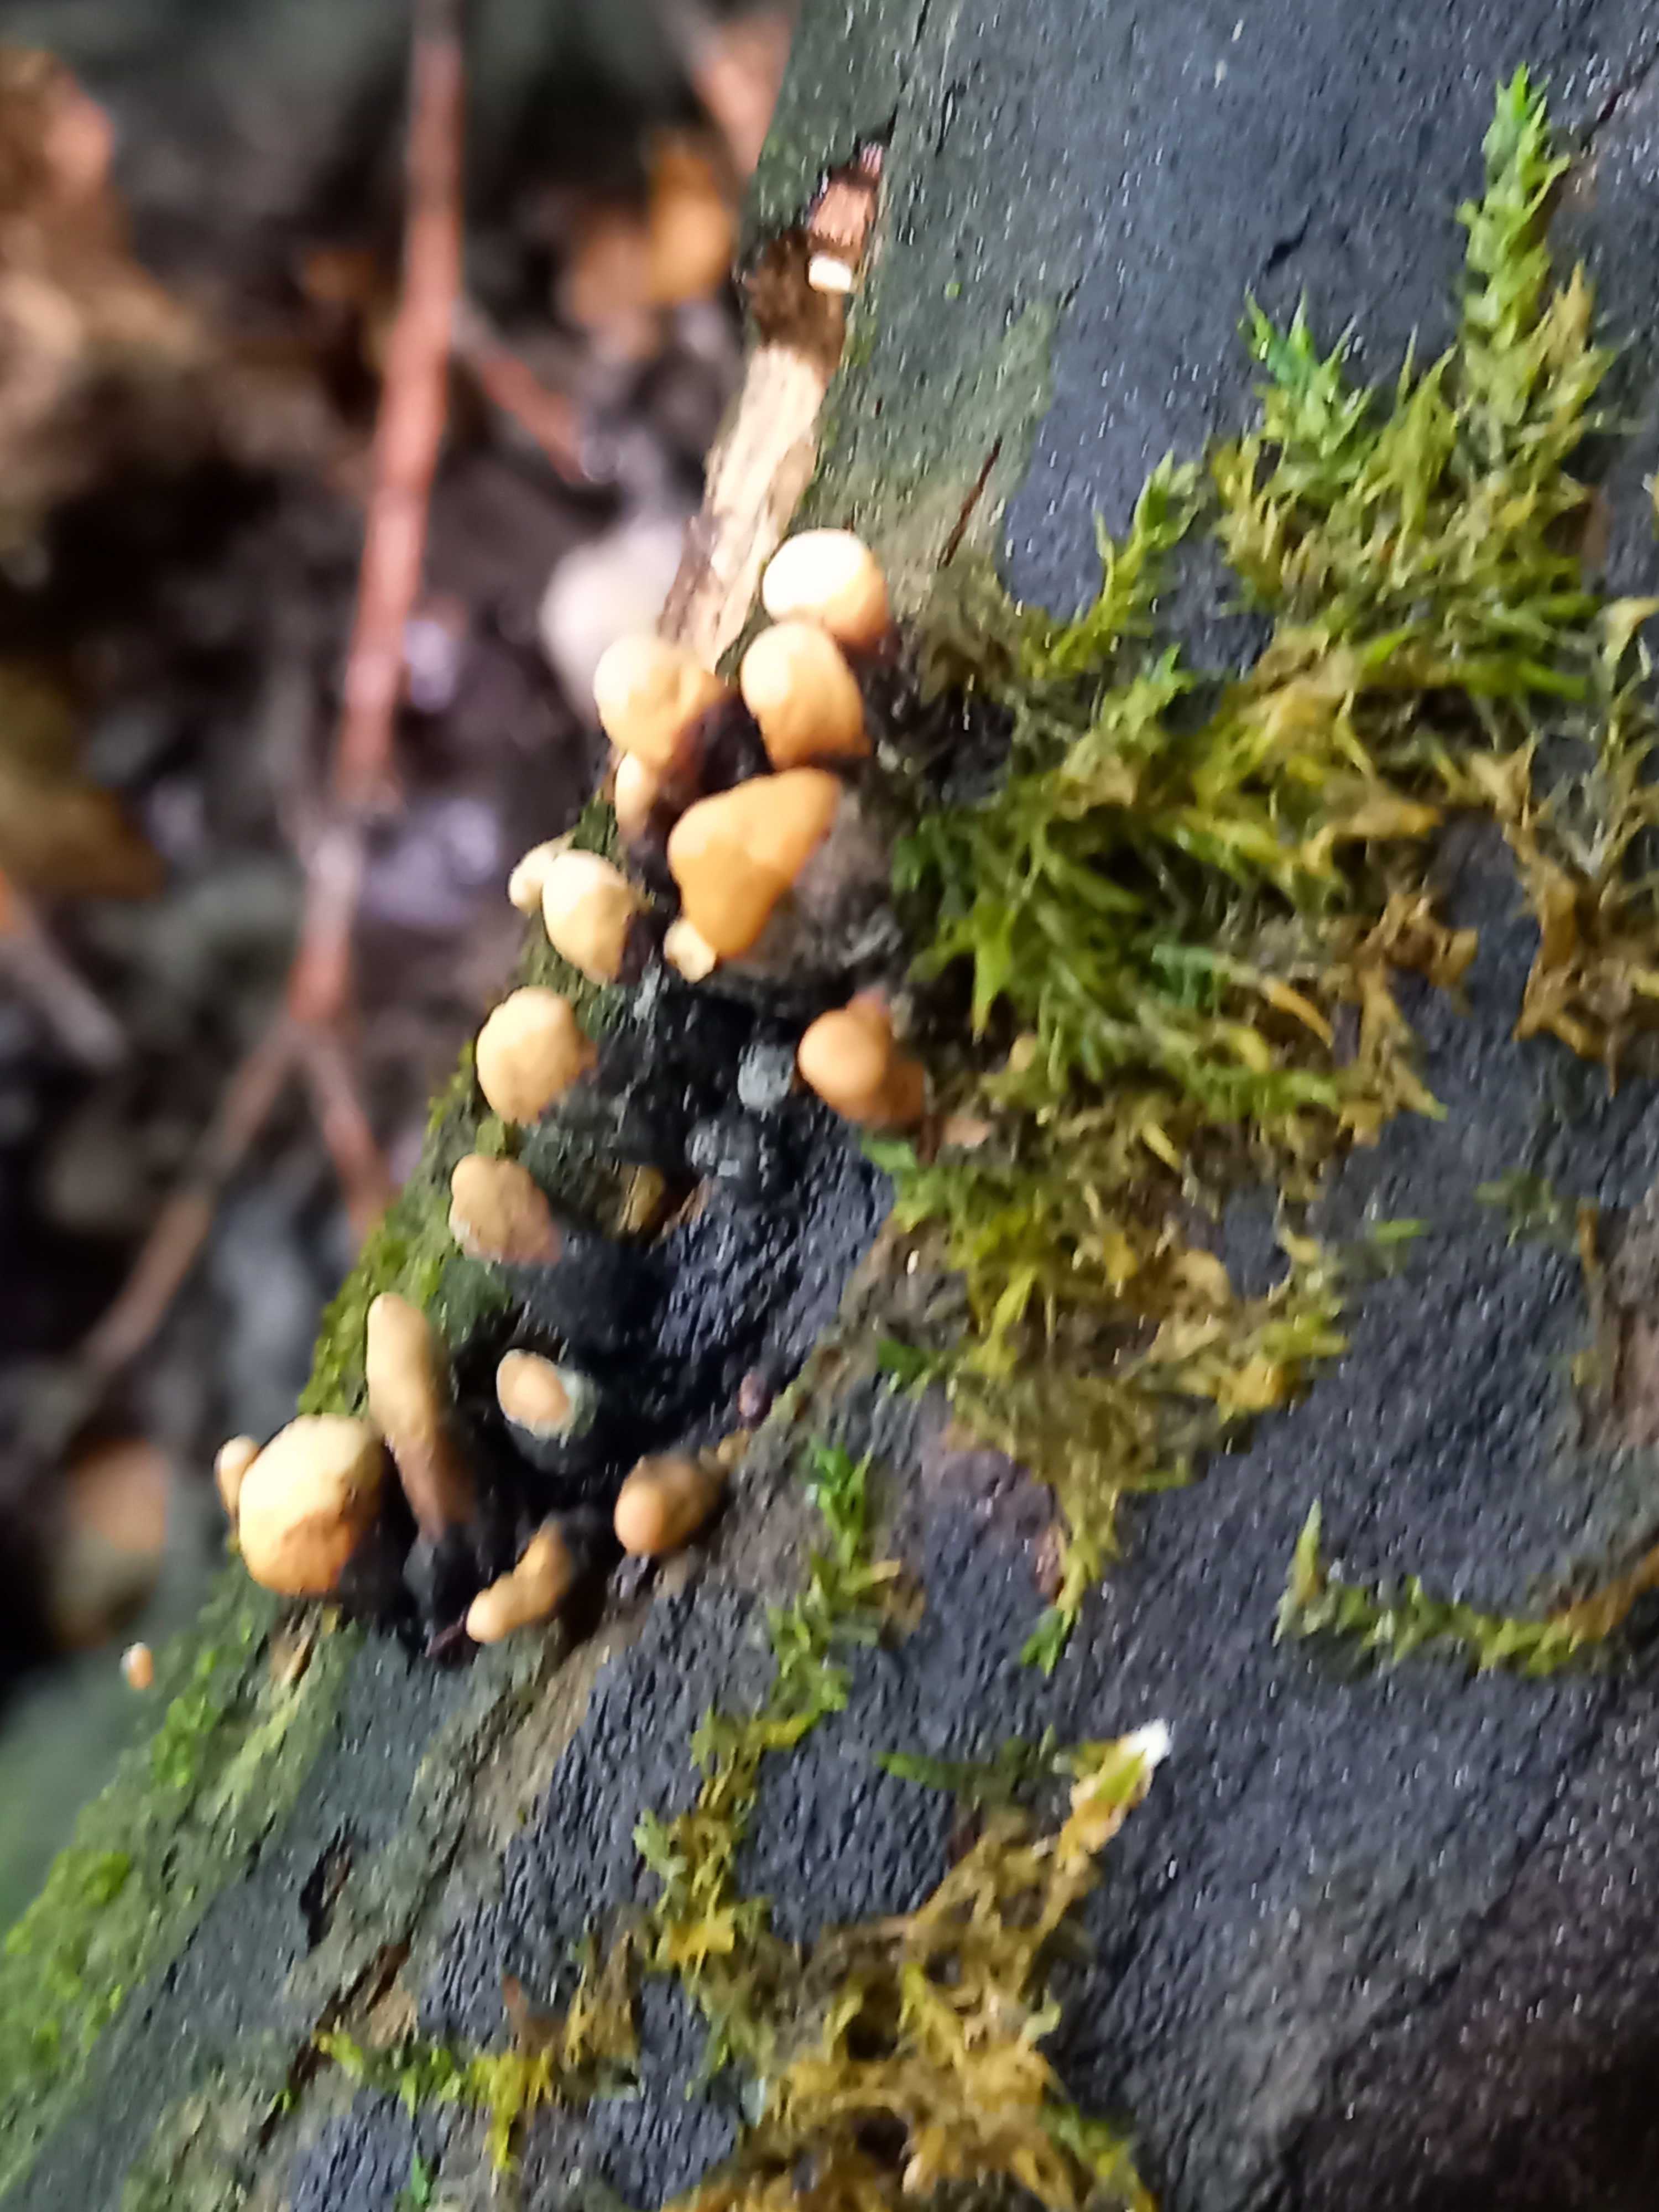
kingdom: Fungi
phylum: Ascomycota
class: Sordariomycetes
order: Xylariales
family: Xylariaceae
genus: Xylaria
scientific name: Xylaria longipes
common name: slank stødsvamp
